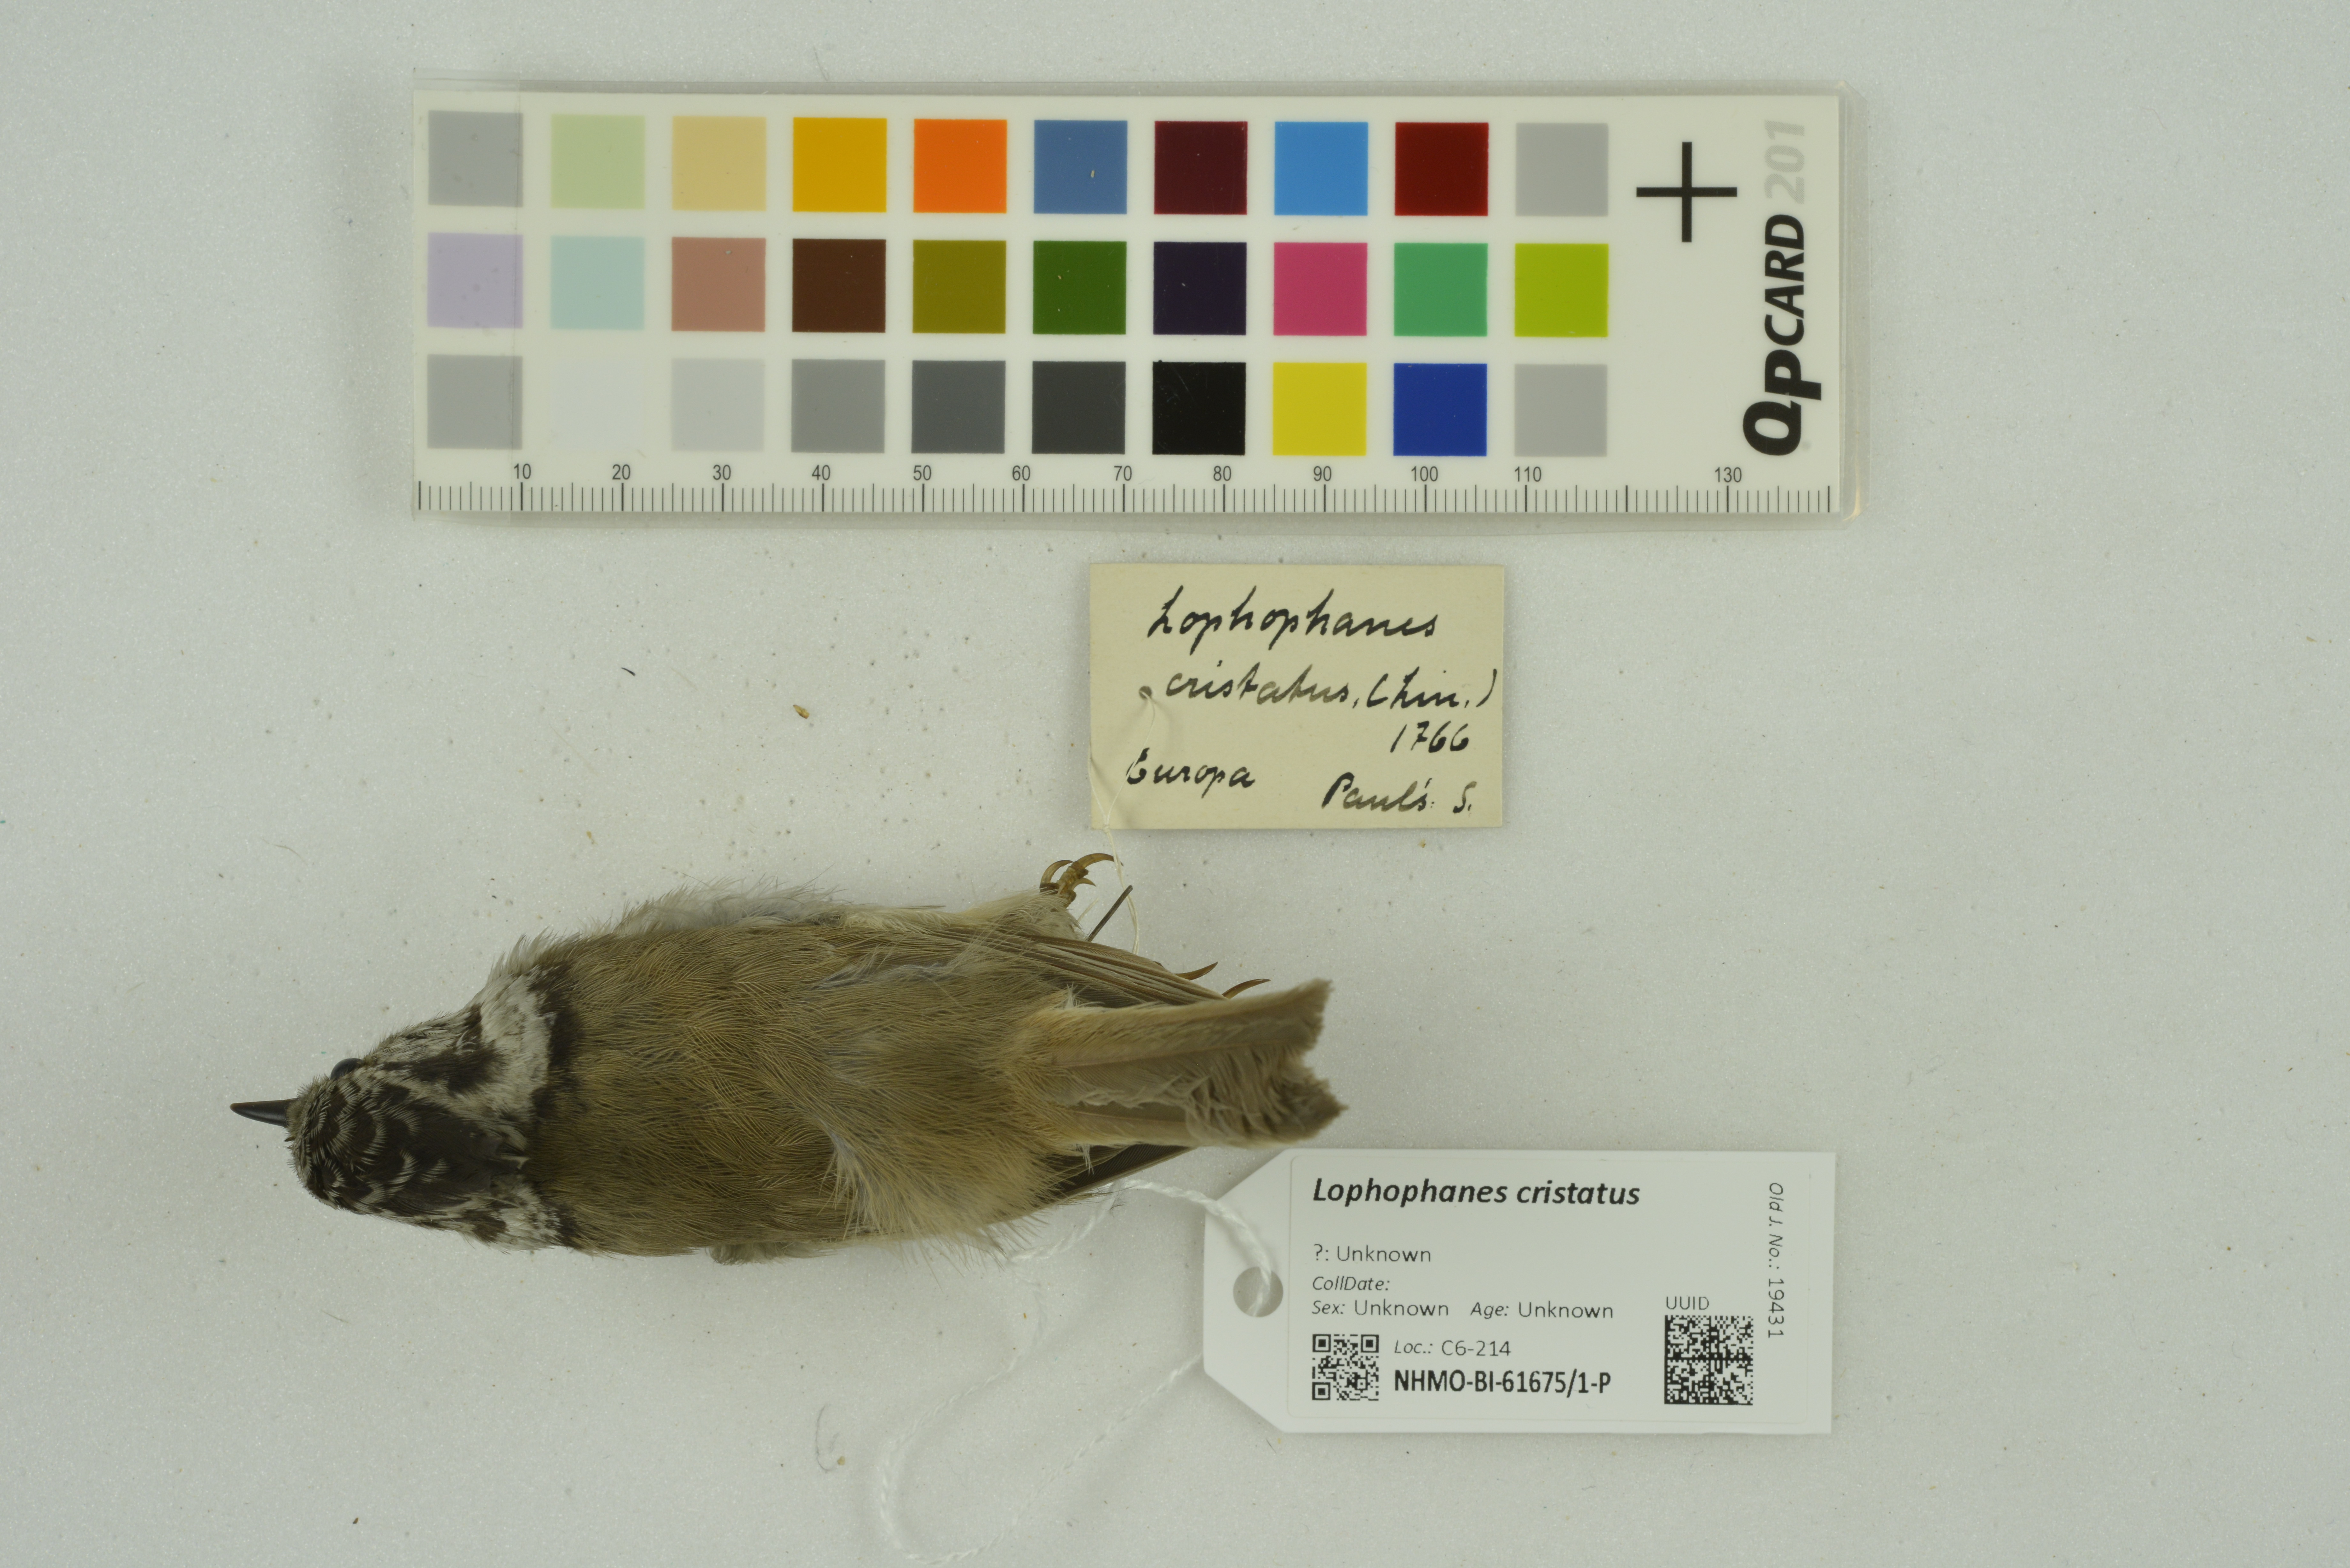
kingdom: Animalia
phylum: Chordata
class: Aves
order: Passeriformes
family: Paridae
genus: Lophophanes
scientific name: Lophophanes cristatus
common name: European crested tit
